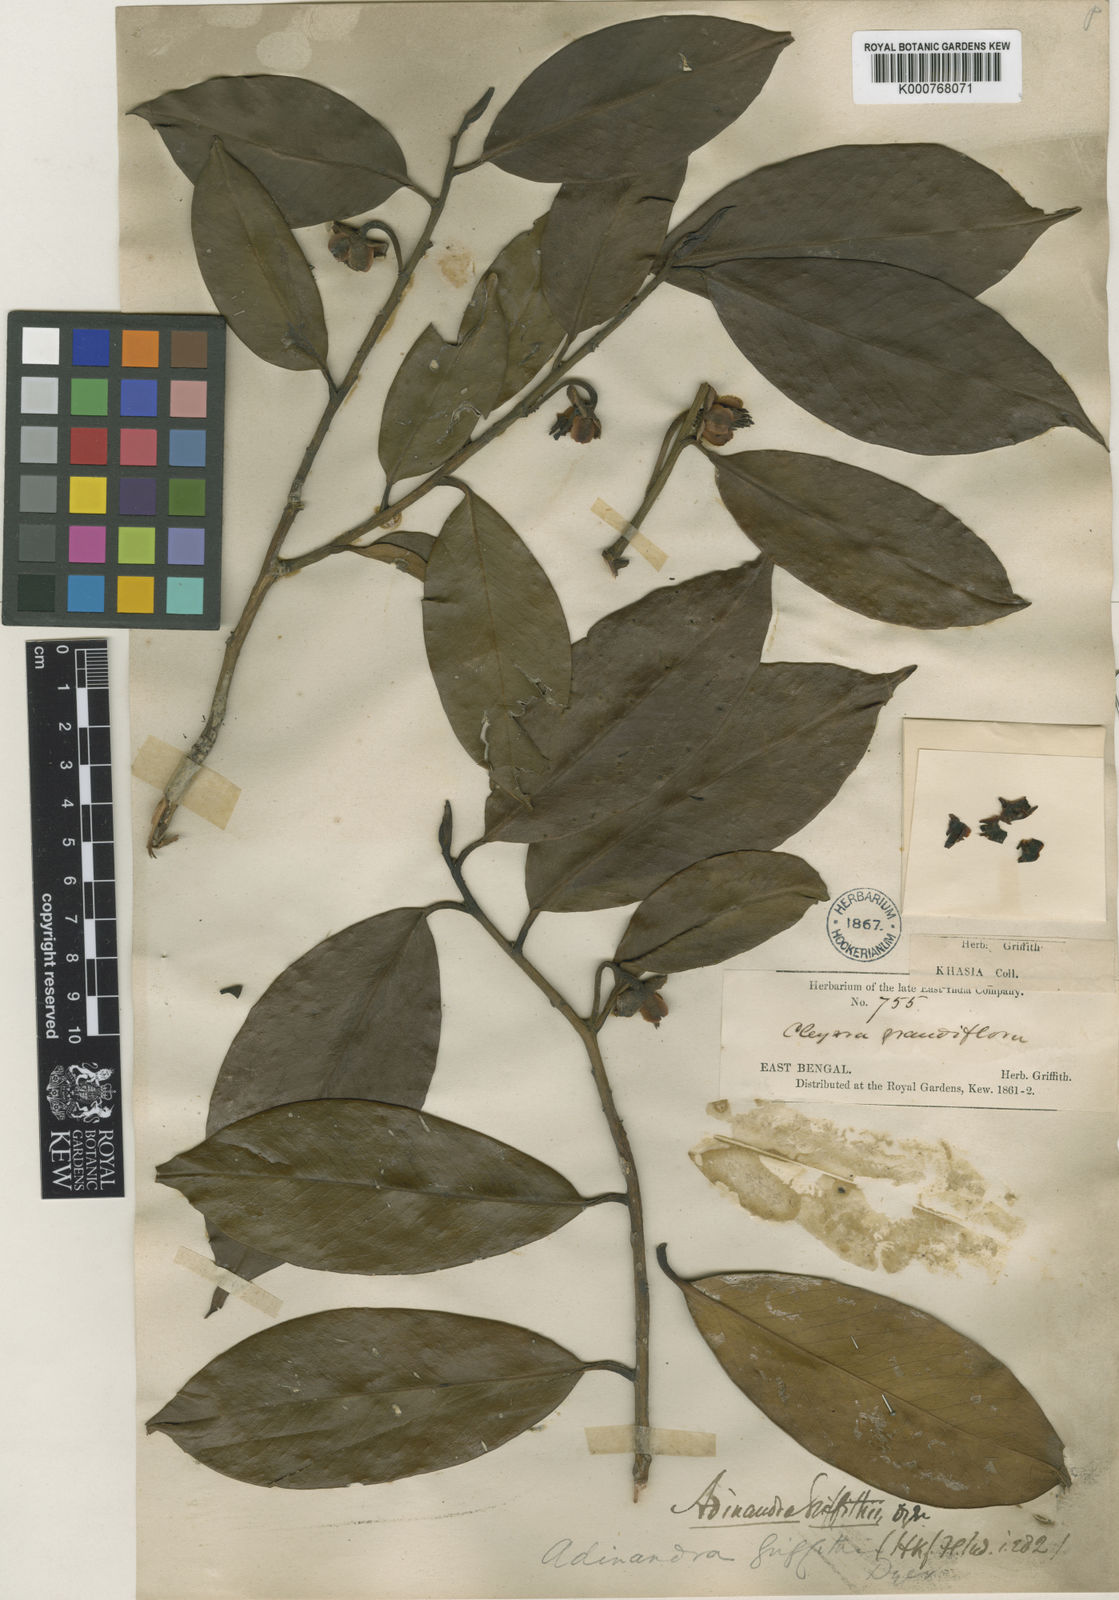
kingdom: Plantae
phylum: Tracheophyta
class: Magnoliopsida
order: Ericales
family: Pentaphylacaceae
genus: Adinandra
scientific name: Adinandra griffithii
